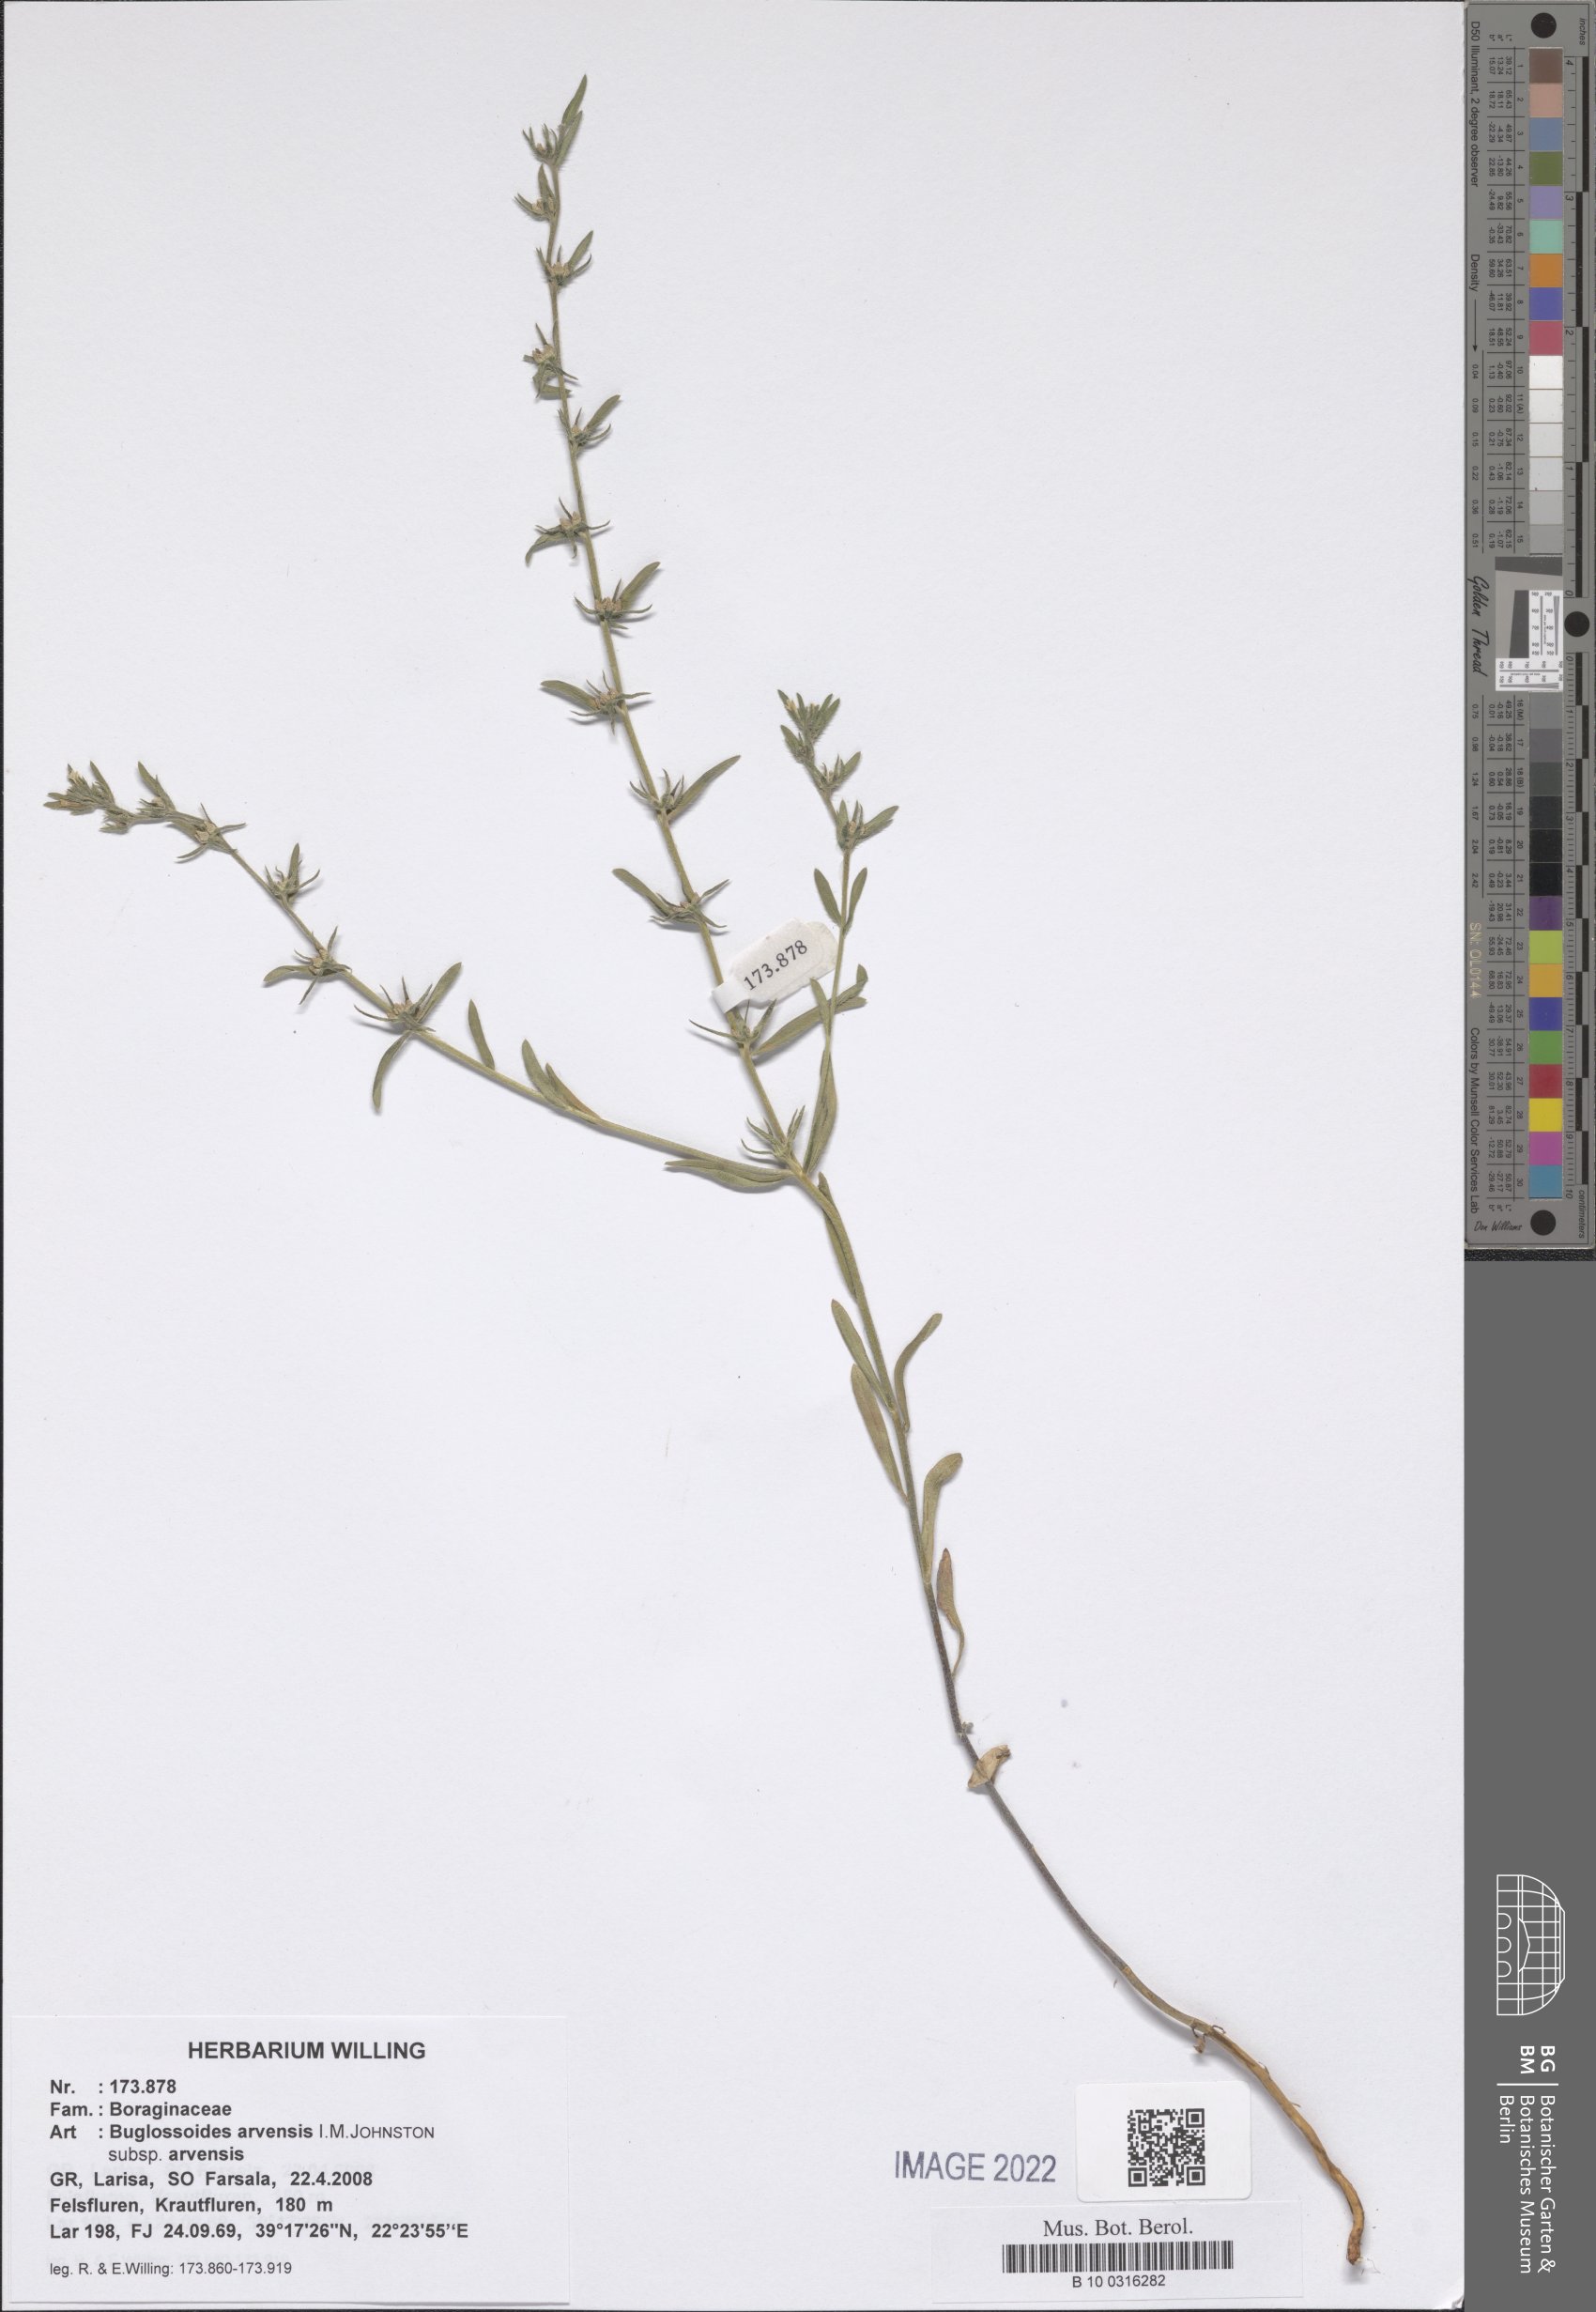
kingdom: Plantae
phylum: Tracheophyta
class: Magnoliopsida
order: Boraginales
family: Boraginaceae
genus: Buglossoides
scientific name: Buglossoides arvensis
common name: Corn gromwell
